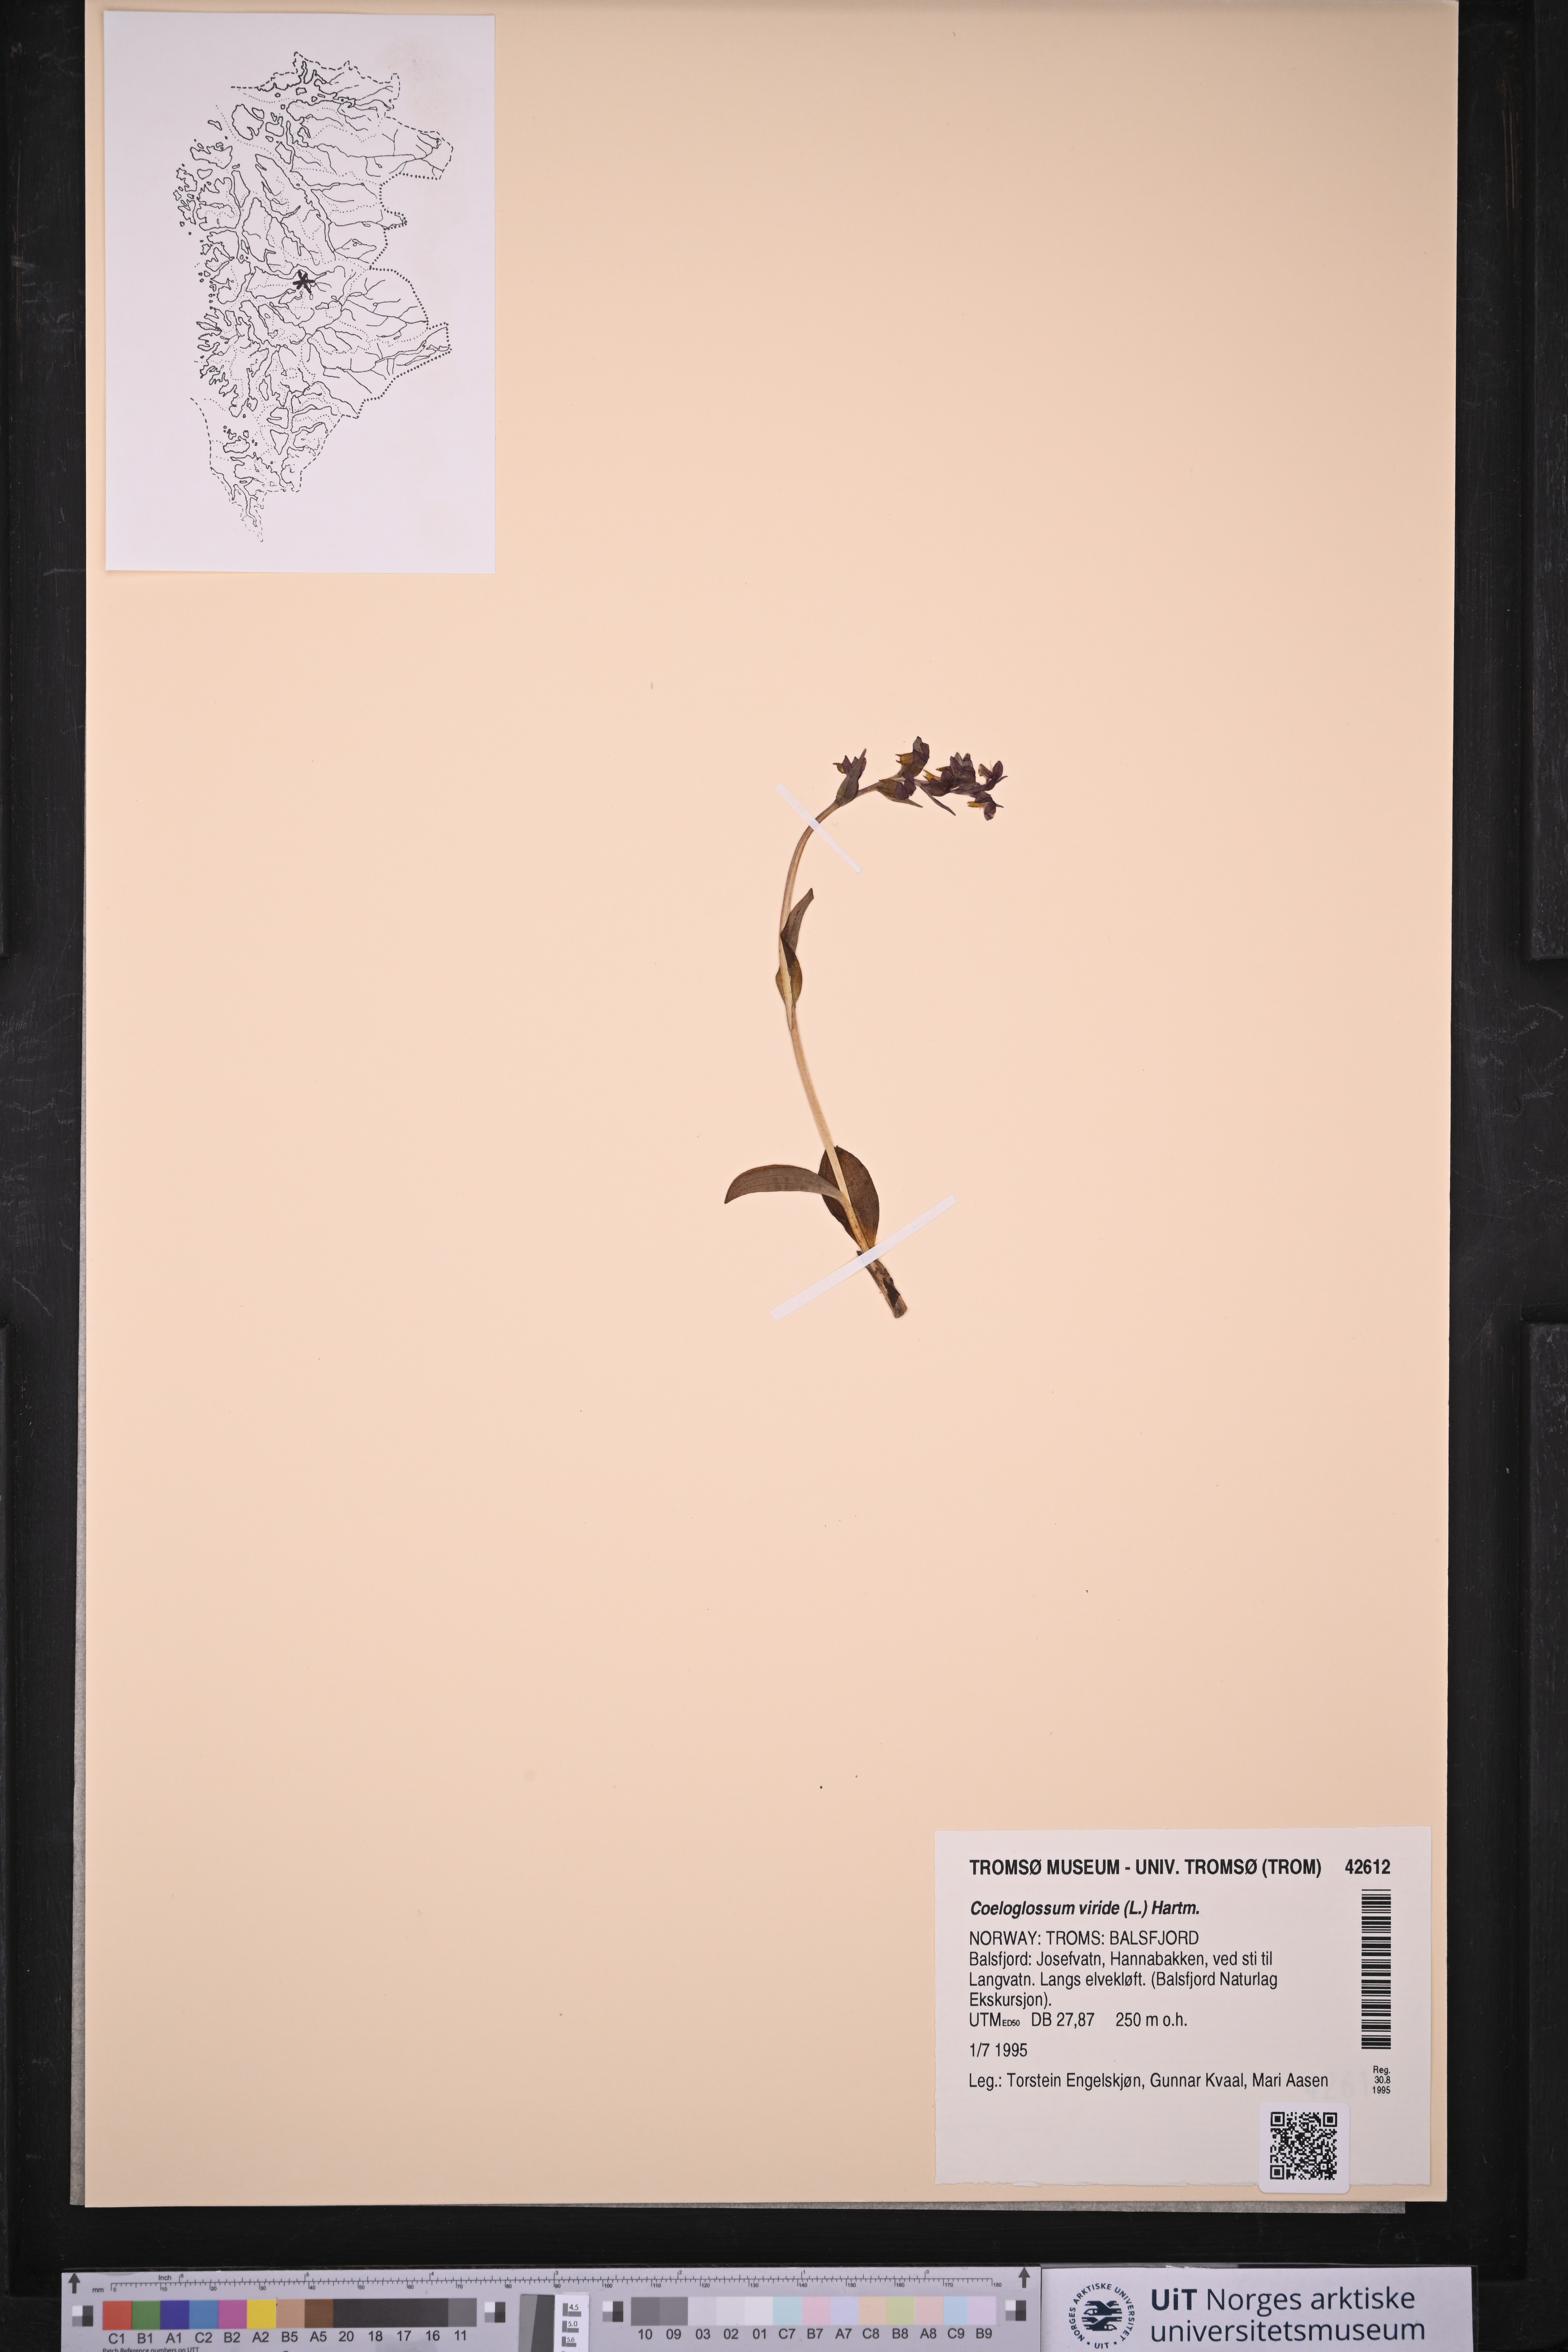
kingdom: Plantae
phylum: Tracheophyta
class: Liliopsida
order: Asparagales
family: Orchidaceae
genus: Dactylorhiza
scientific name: Dactylorhiza viridis
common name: Longbract frog orchid
